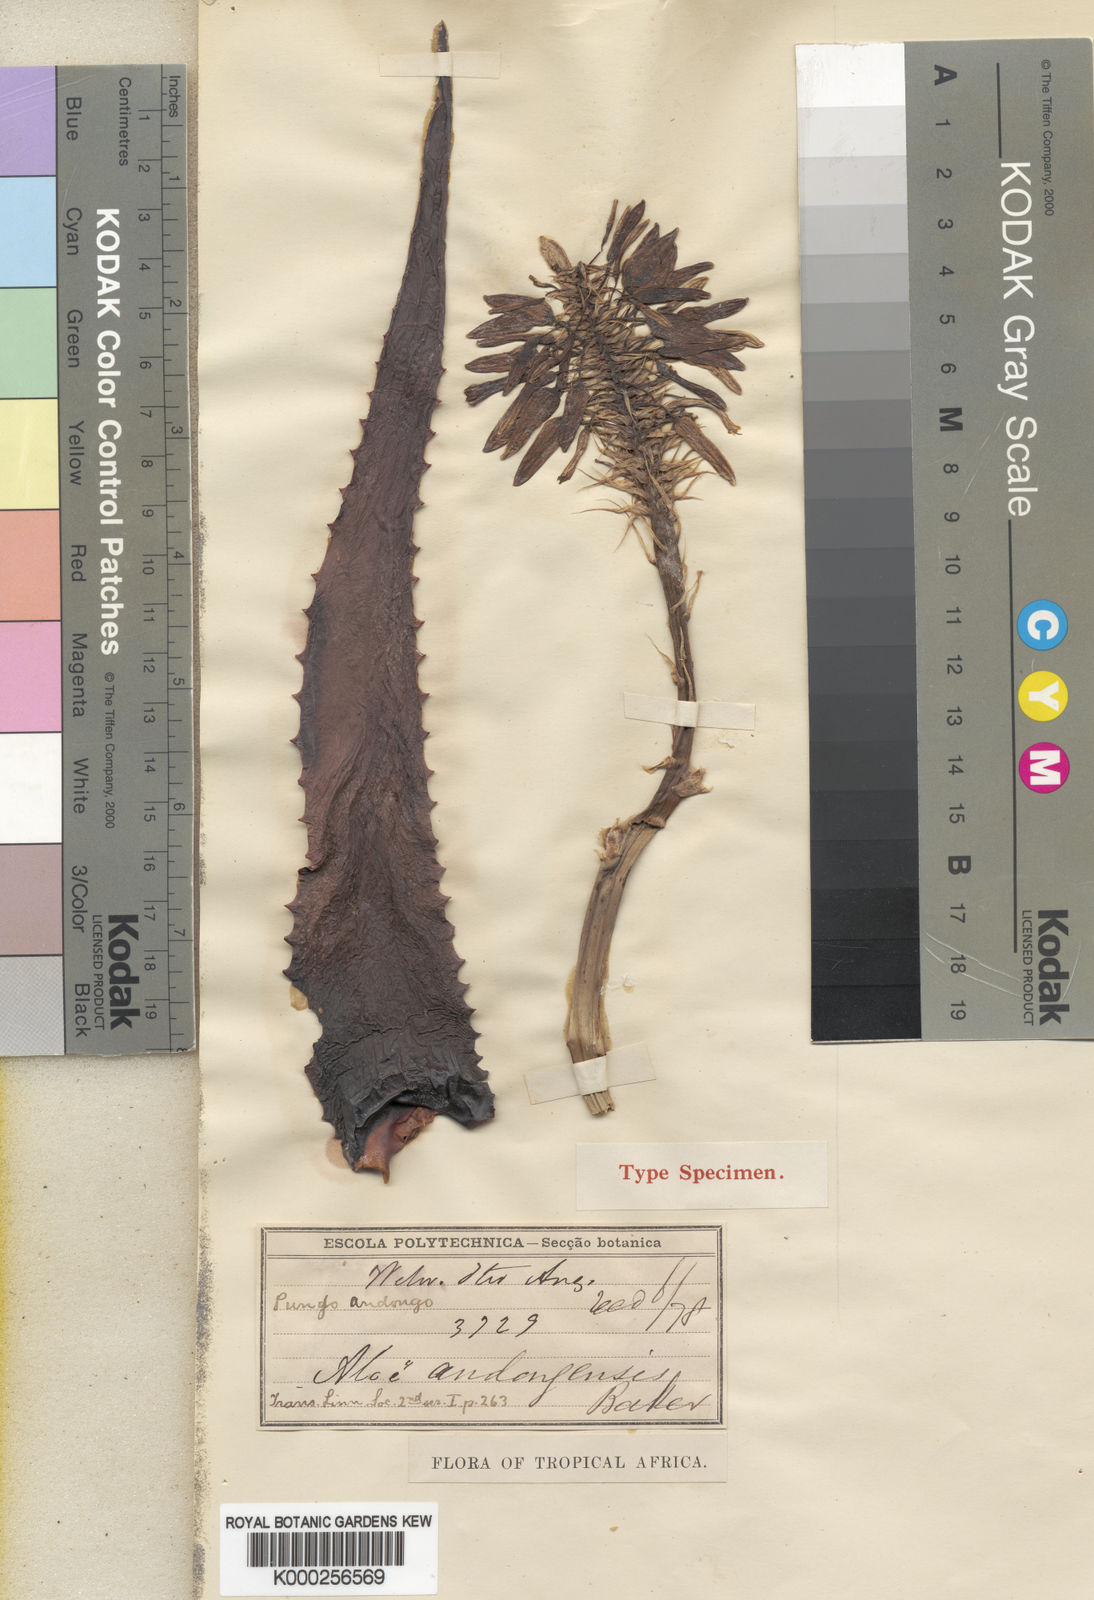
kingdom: Plantae
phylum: Tracheophyta
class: Liliopsida
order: Asparagales
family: Asphodelaceae
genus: Aloe
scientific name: Aloe andongensis
